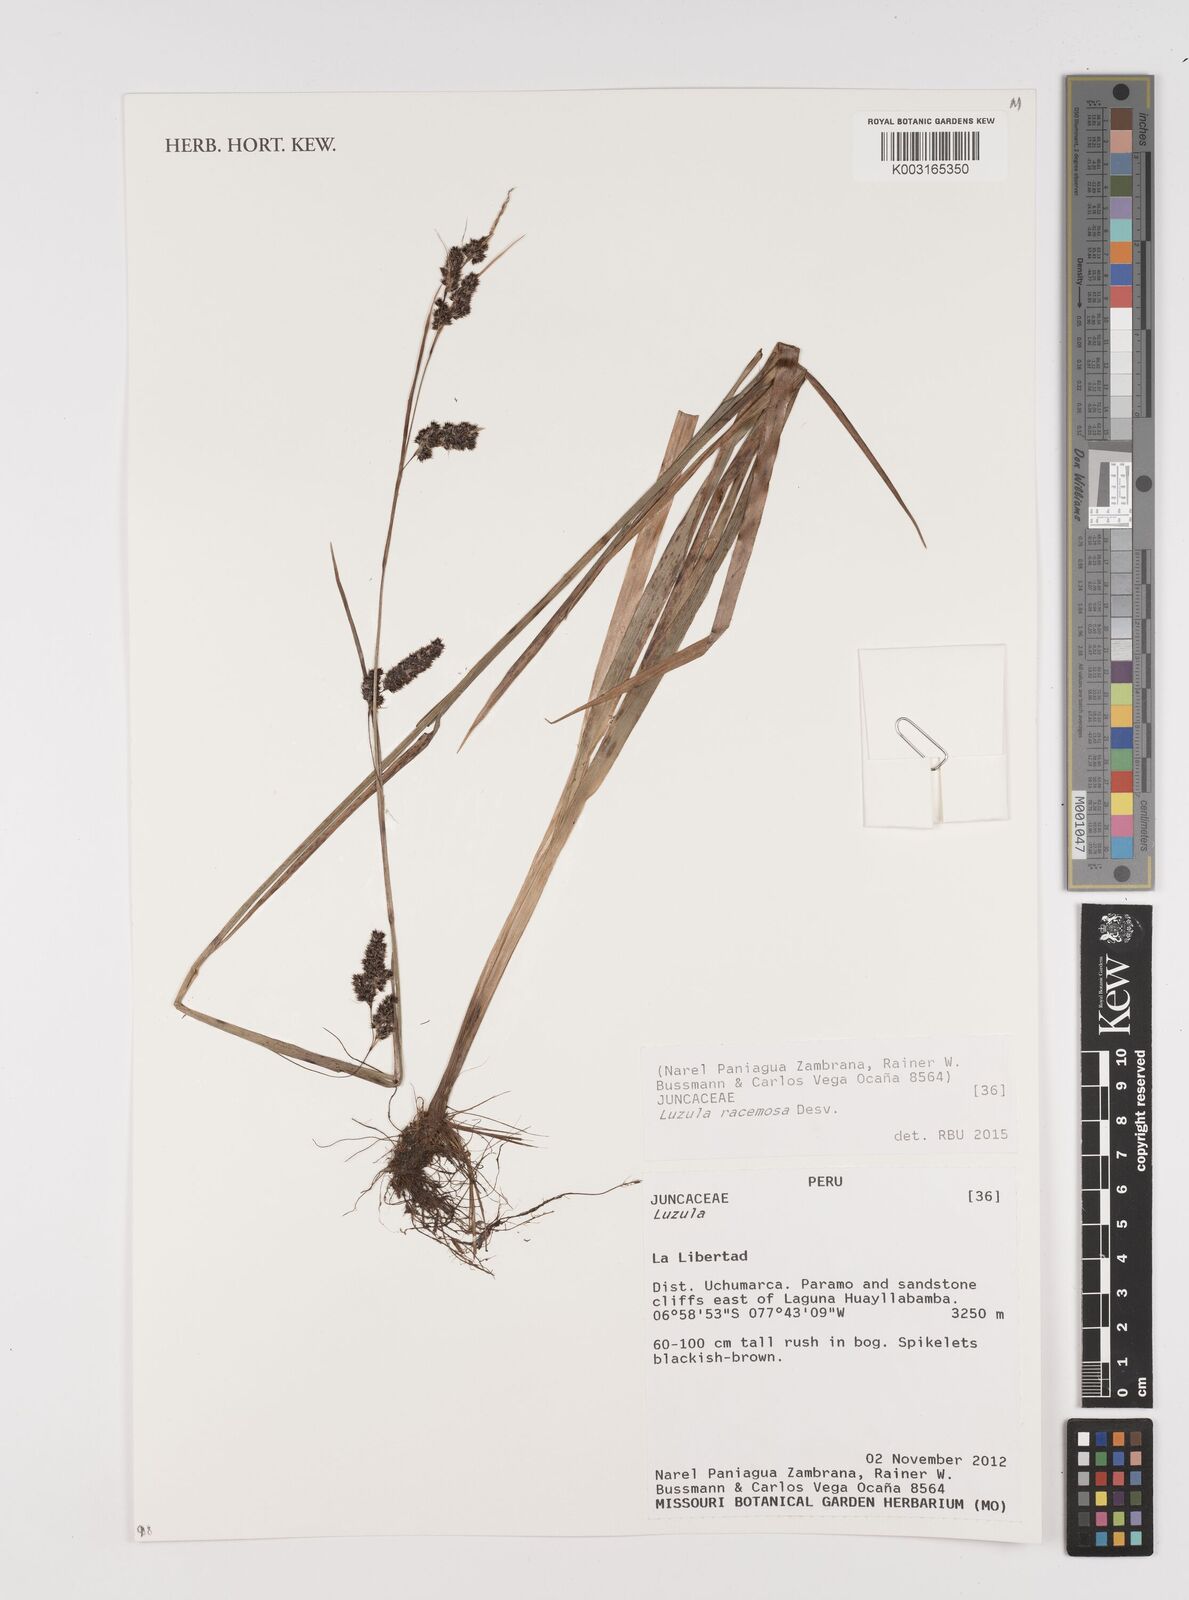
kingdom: Plantae
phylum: Tracheophyta
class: Liliopsida
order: Poales
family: Juncaceae
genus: Luzula
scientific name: Luzula racemosa
